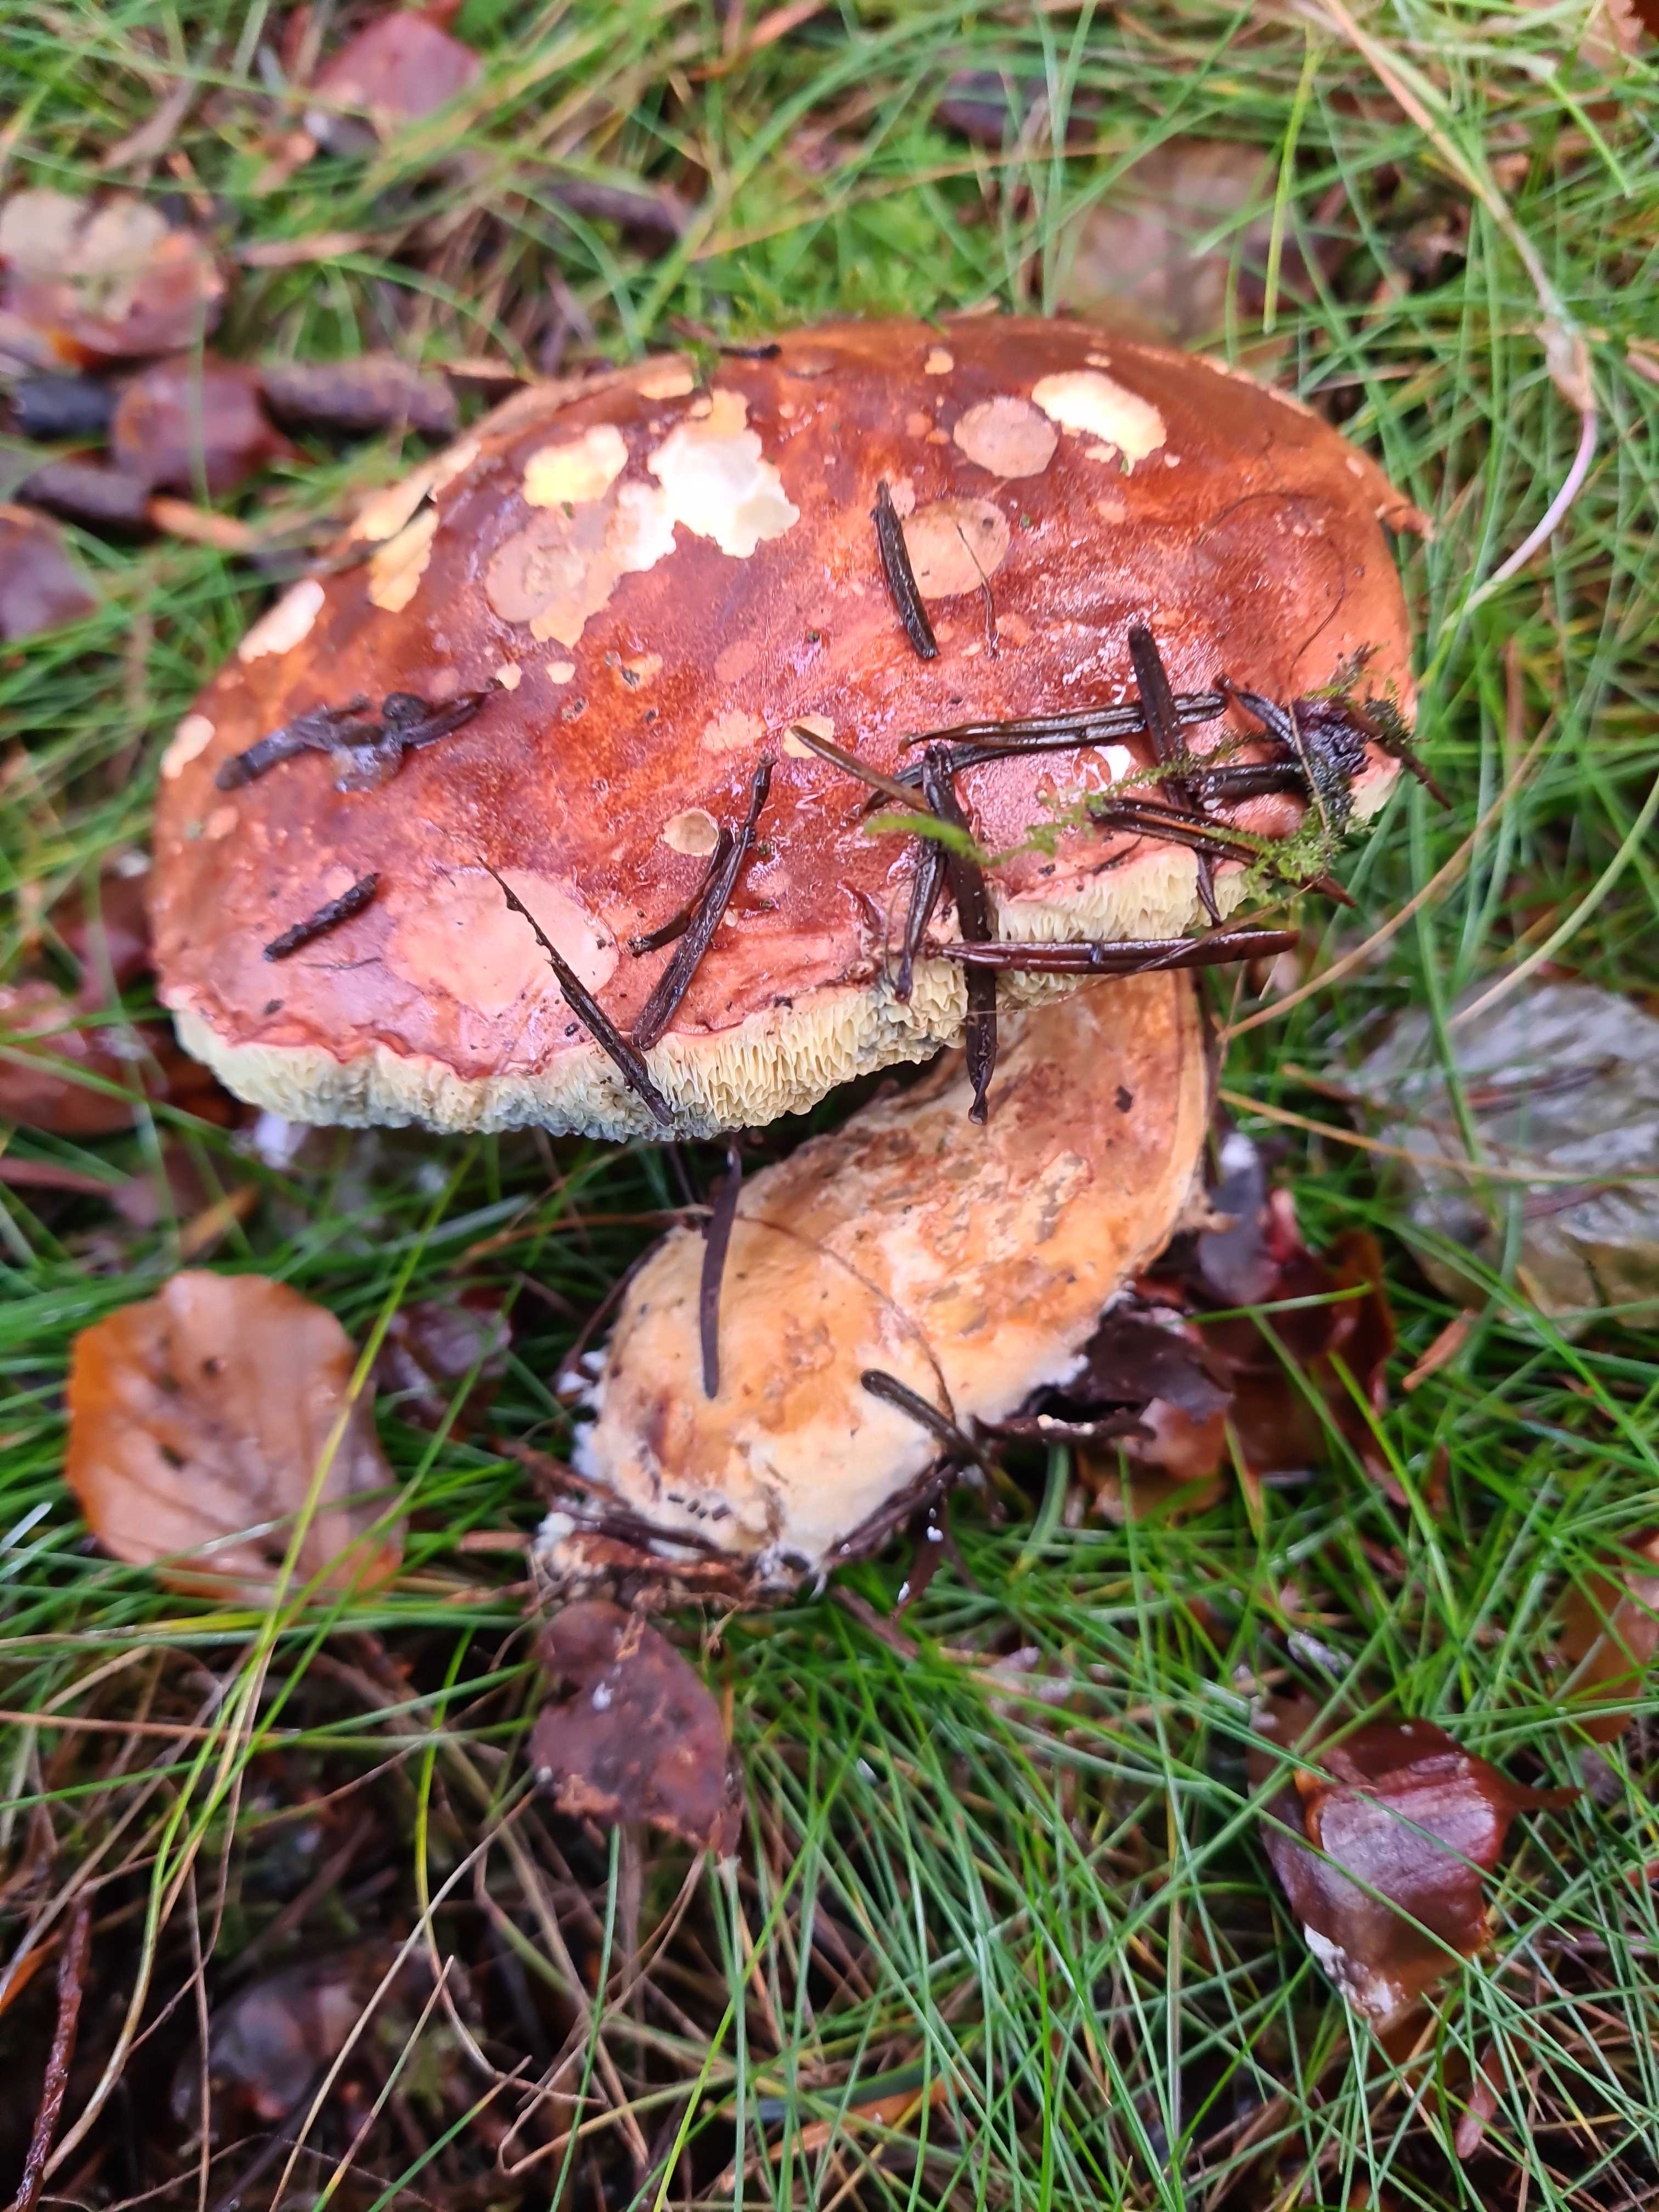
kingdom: Fungi
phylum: Basidiomycota
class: Agaricomycetes
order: Boletales
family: Boletaceae
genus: Imleria
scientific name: Imleria badia
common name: brunstokket rørhat
